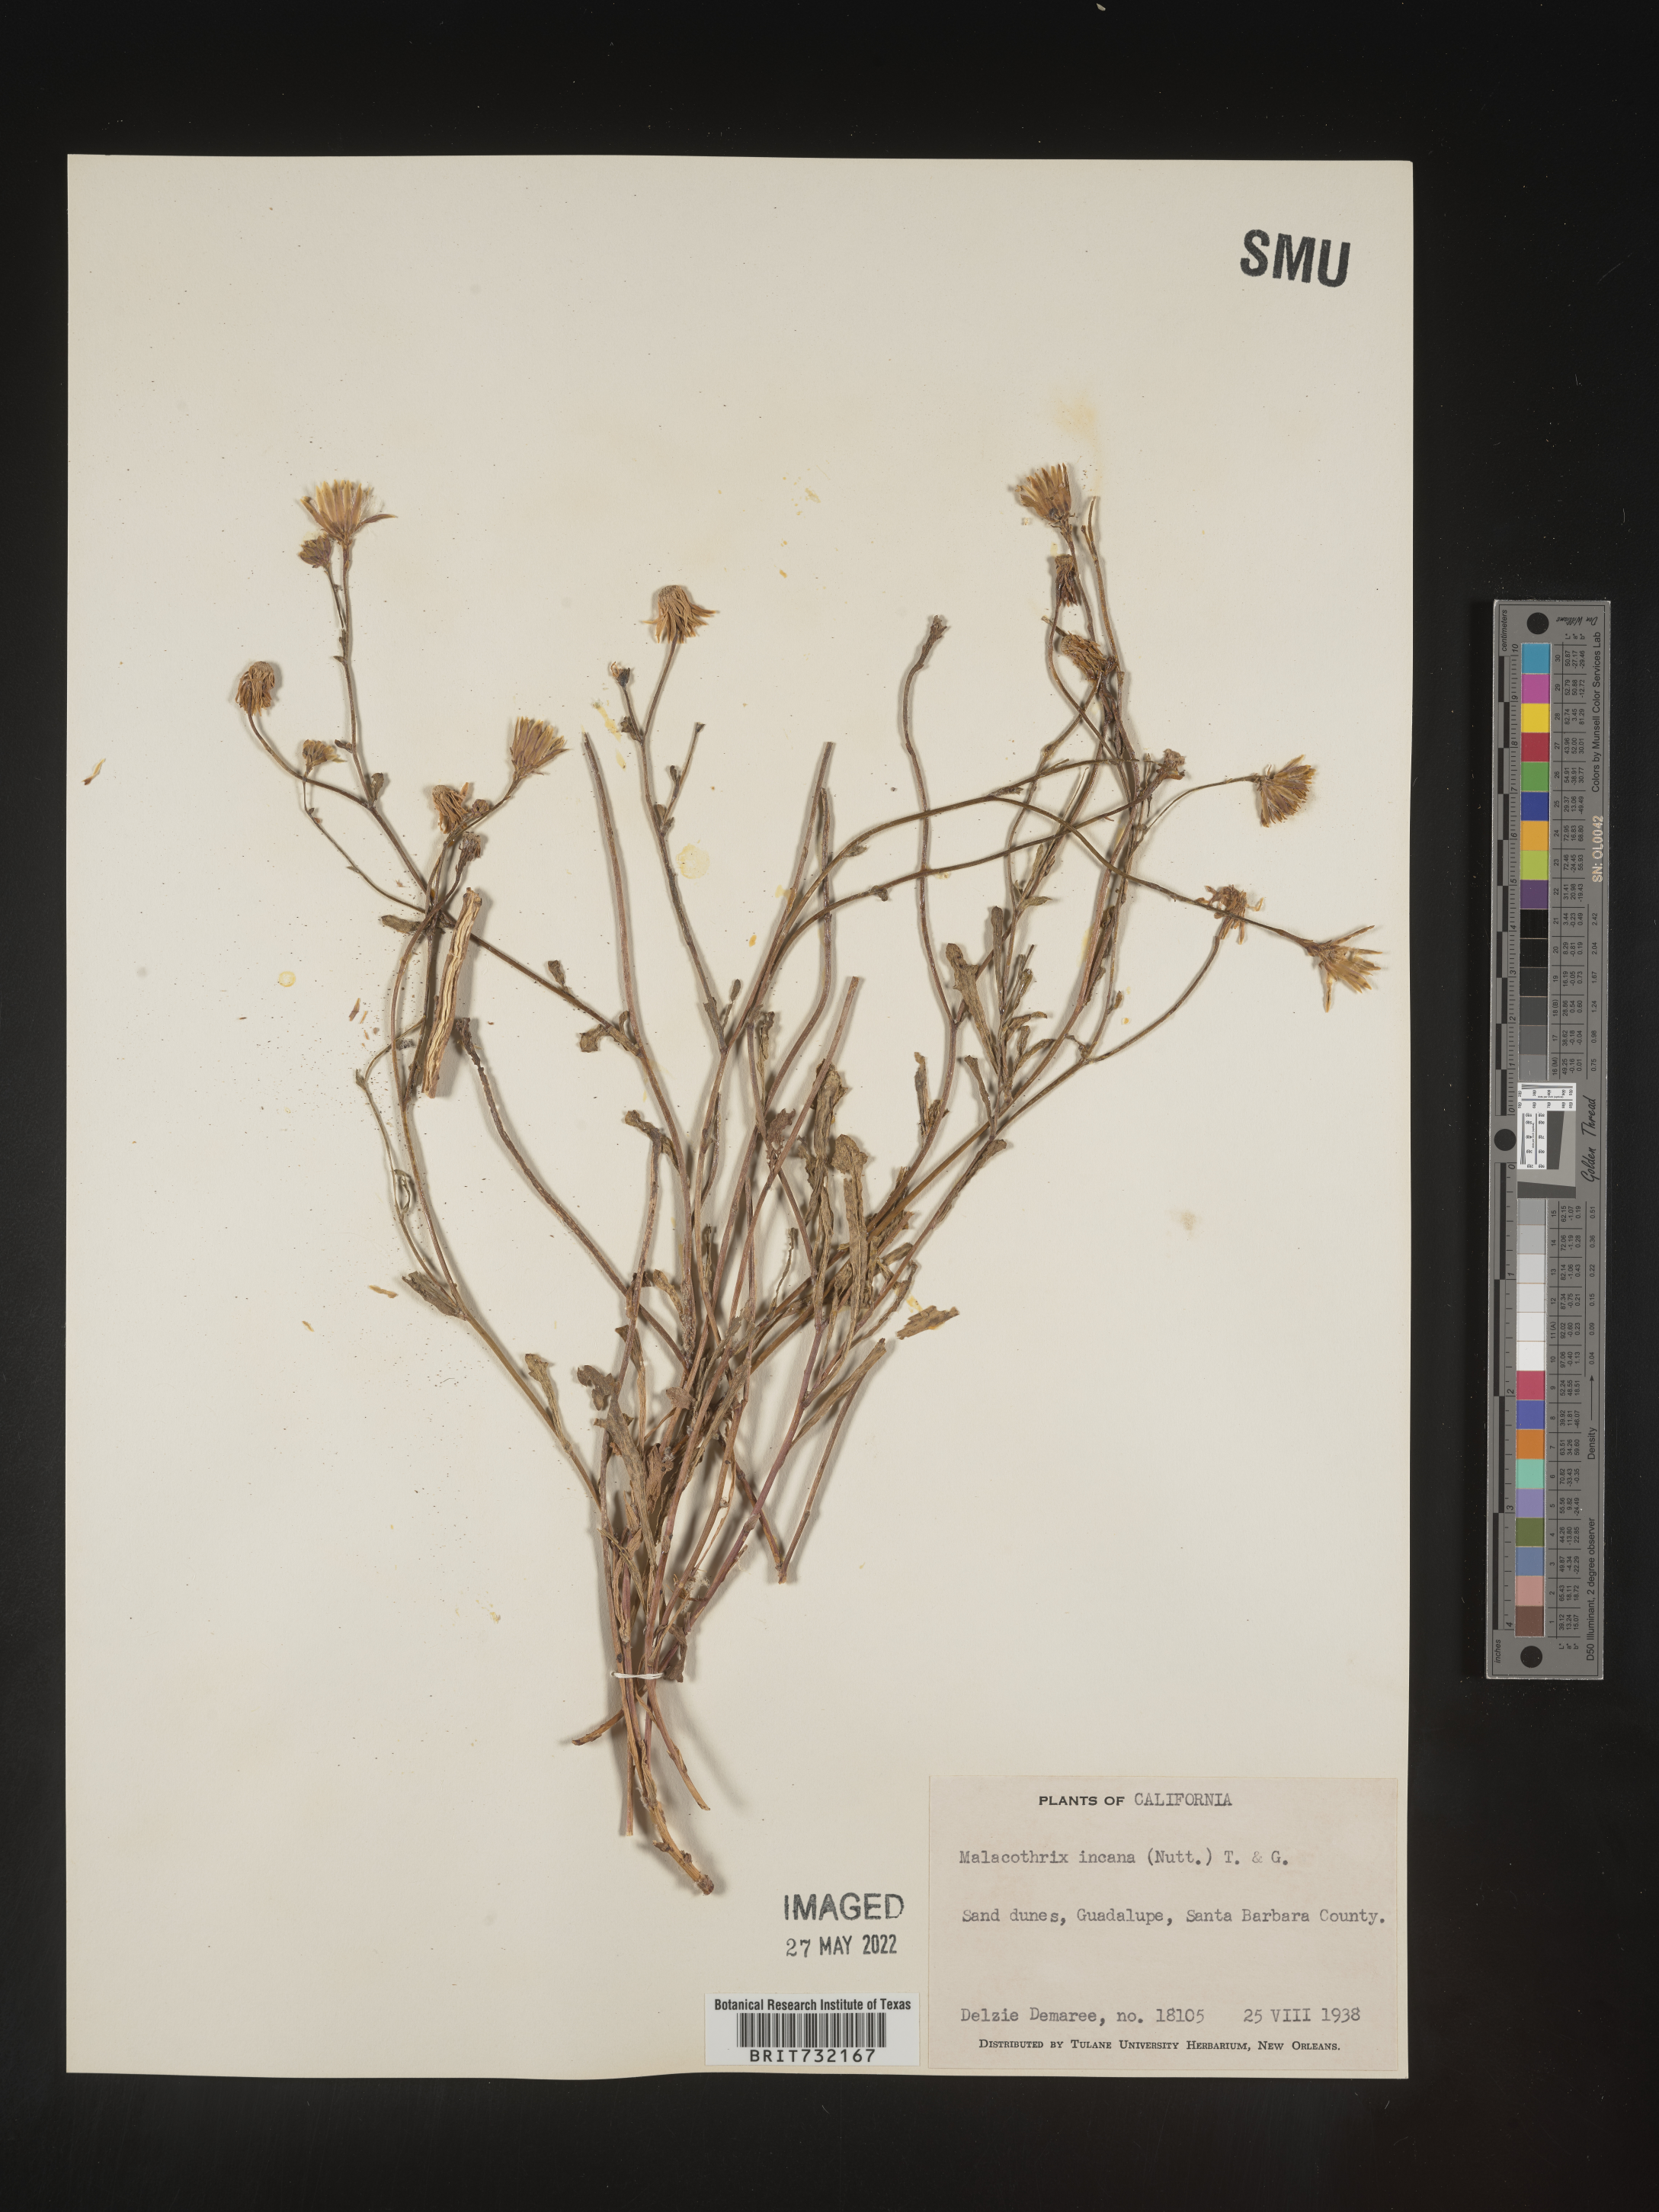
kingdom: Plantae
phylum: Tracheophyta
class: Magnoliopsida
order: Asterales
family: Asteraceae
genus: Malacothrix
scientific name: Malacothrix incana
